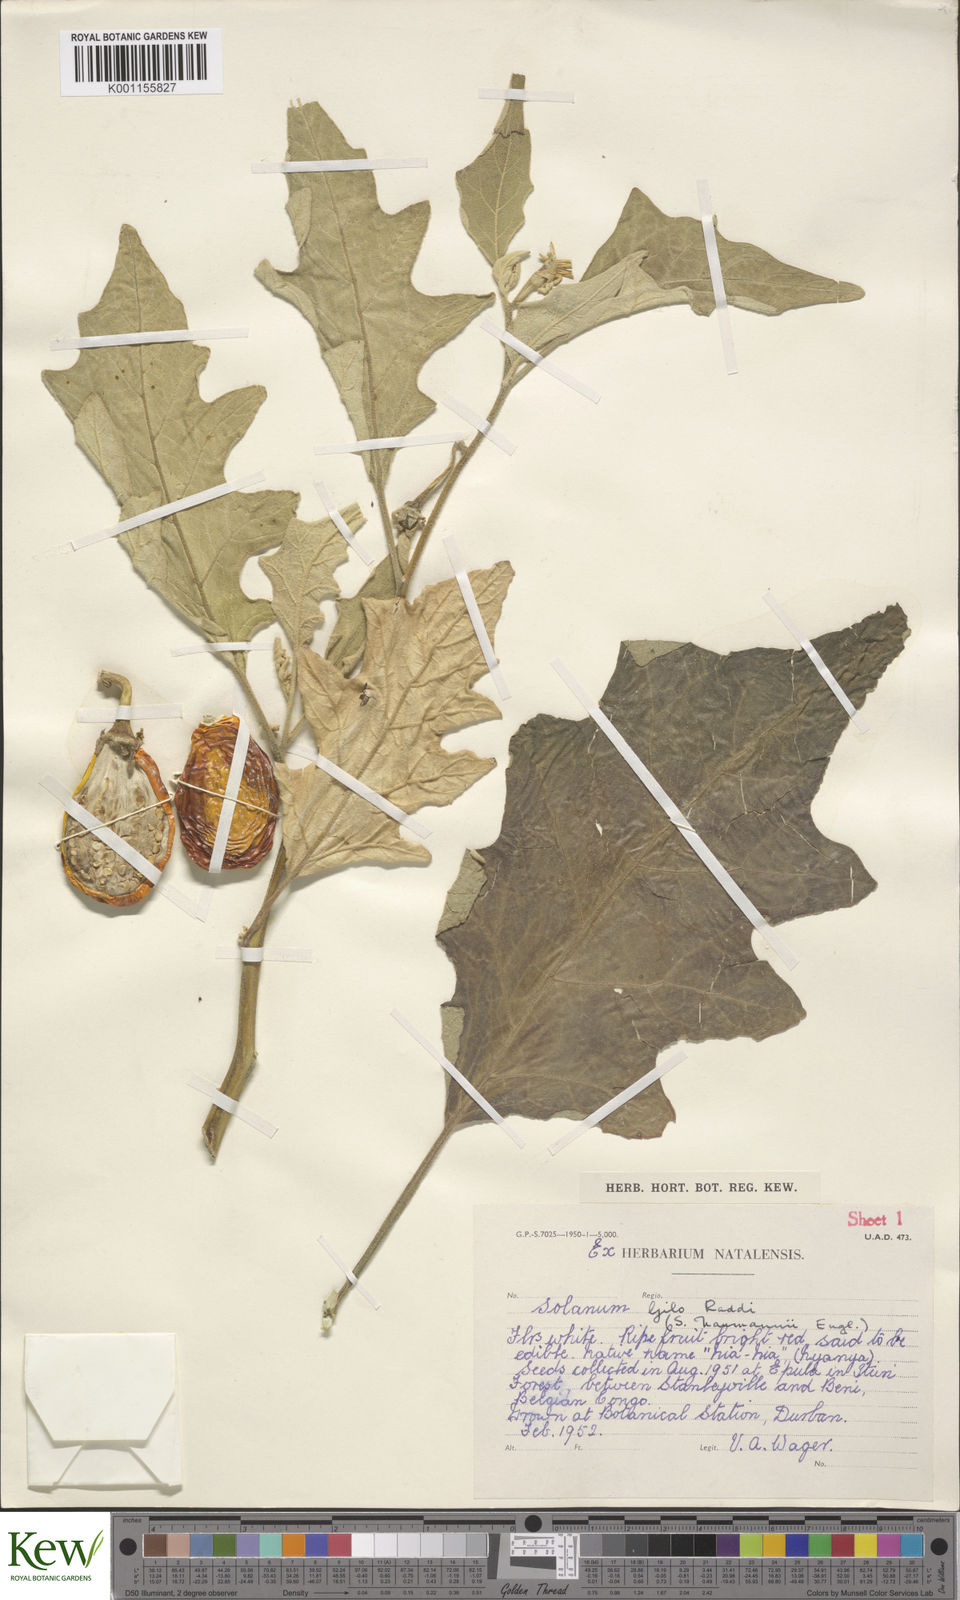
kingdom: Plantae
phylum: Tracheophyta
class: Magnoliopsida
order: Solanales
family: Solanaceae
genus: Solanum
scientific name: Solanum aethiopicum
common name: Gilo
